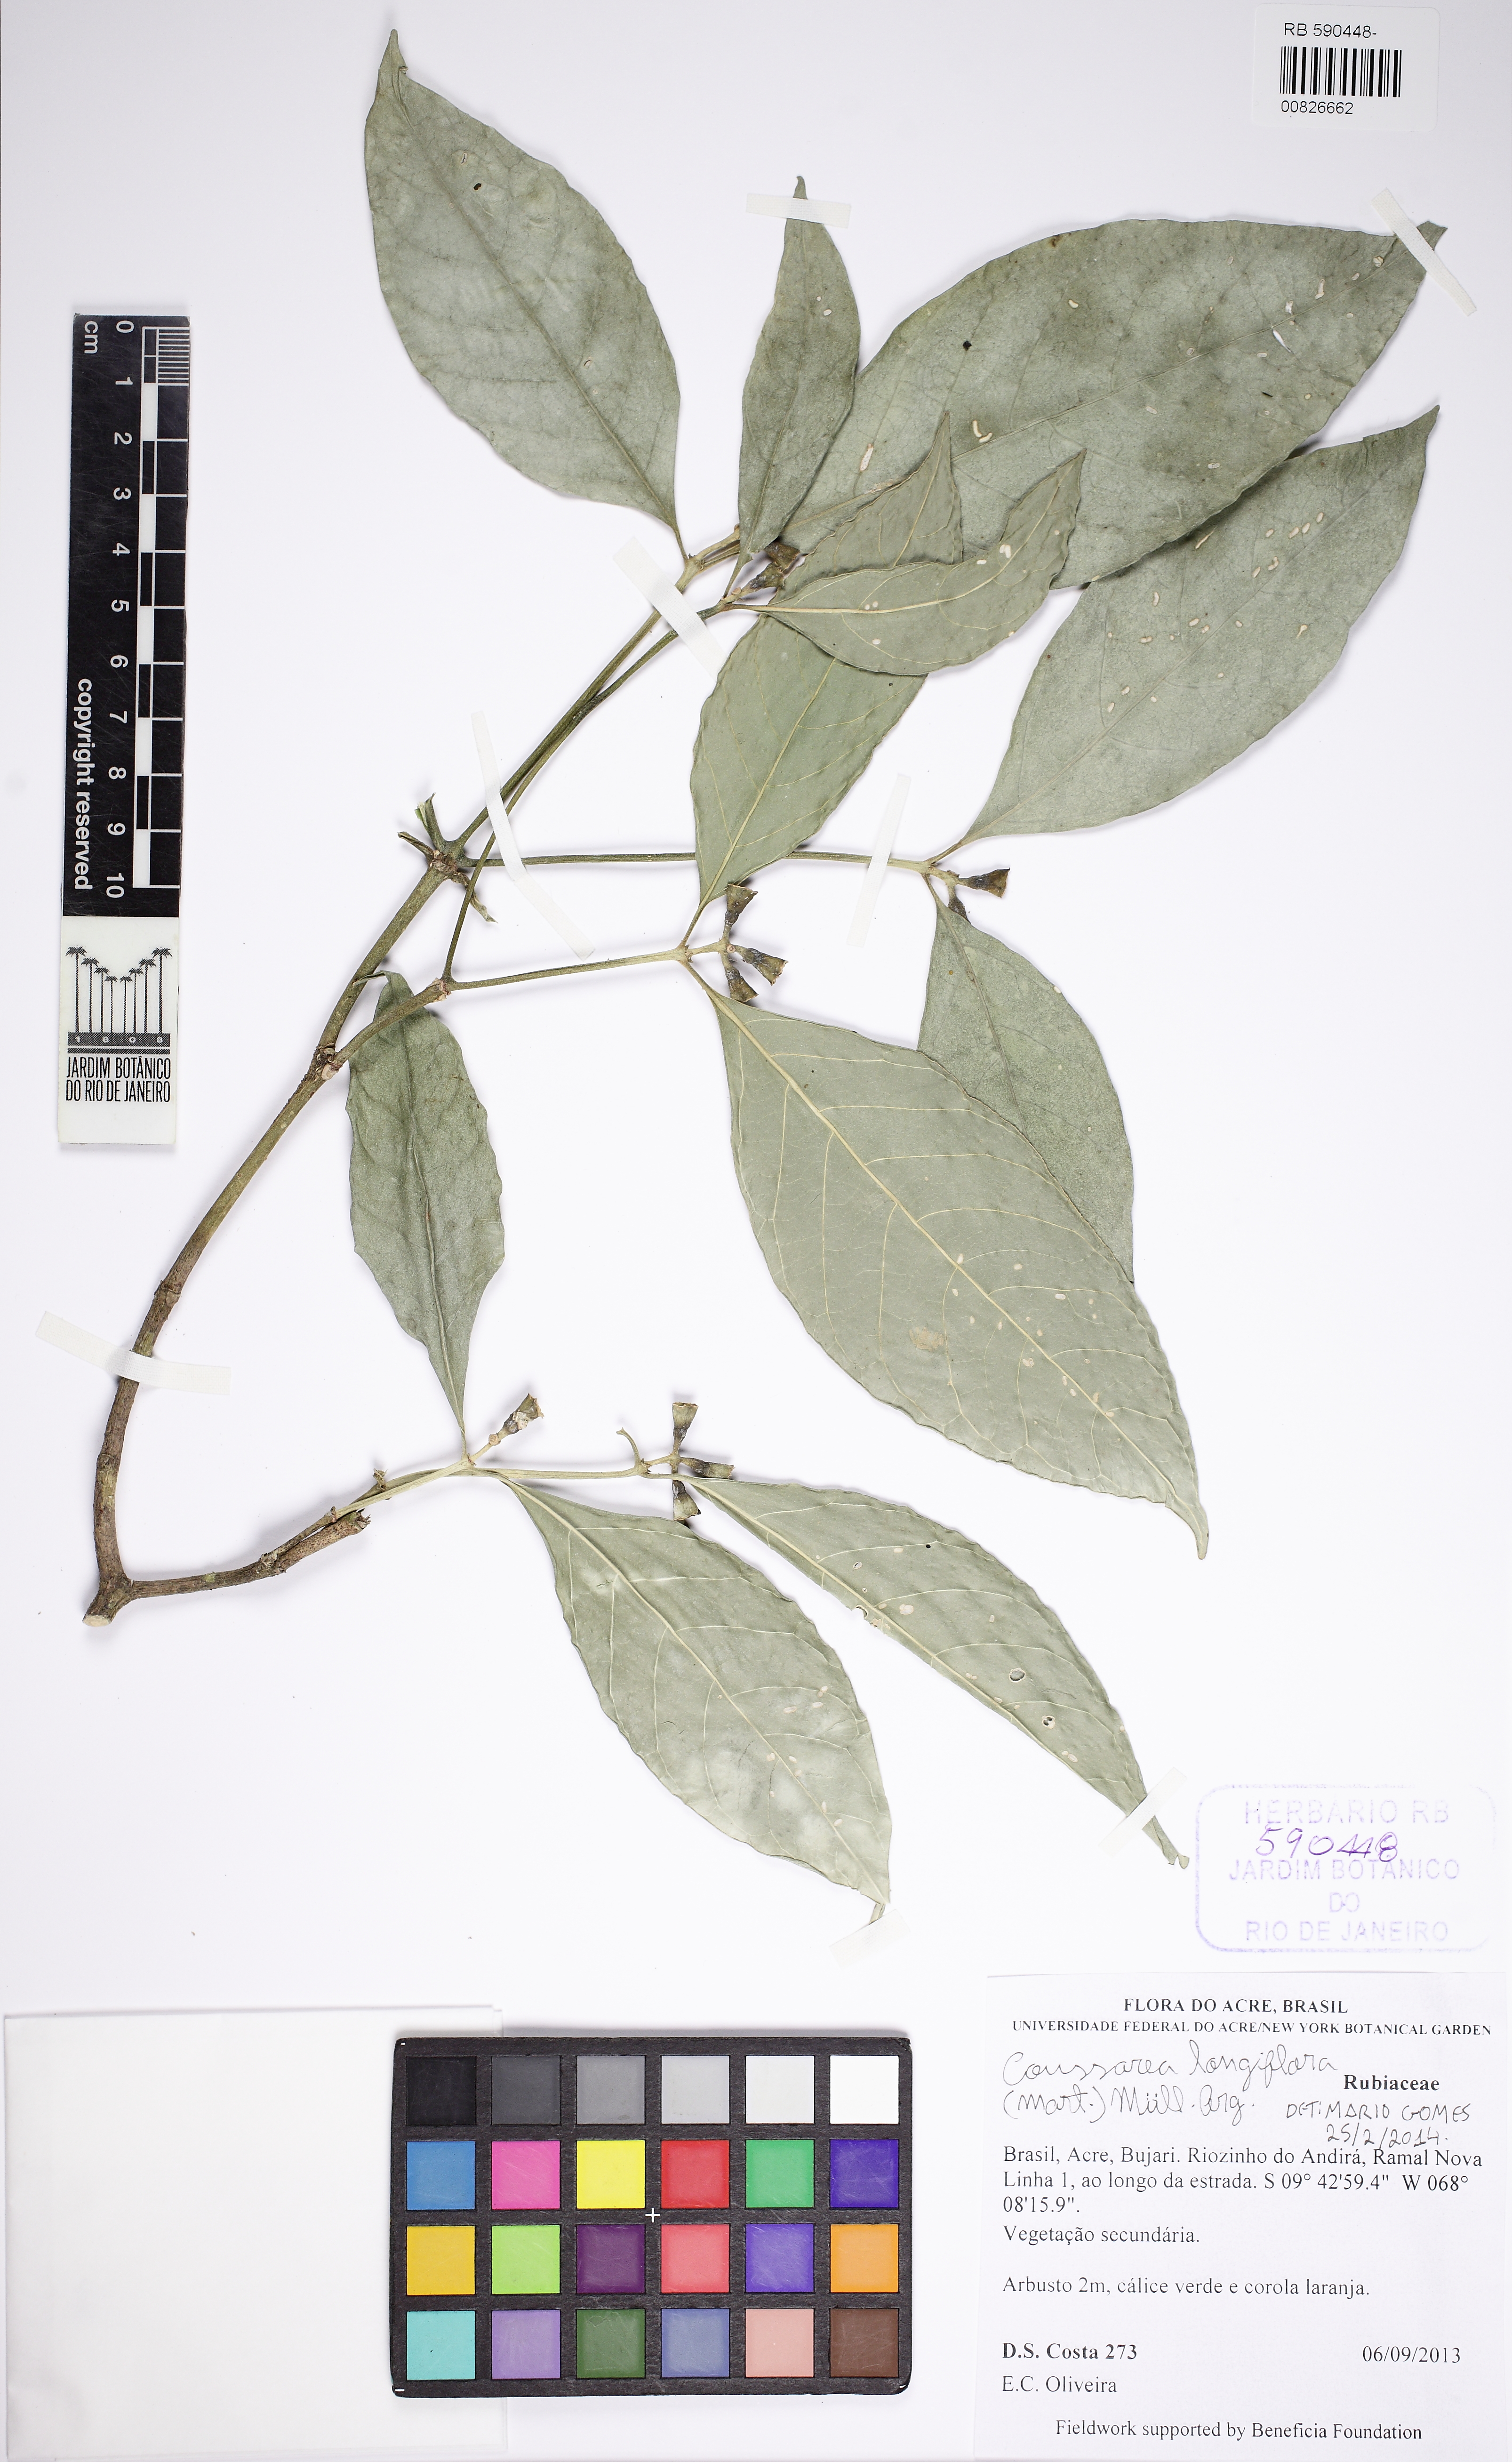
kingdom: Plantae
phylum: Tracheophyta
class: Magnoliopsida
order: Gentianales
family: Rubiaceae
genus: Coussarea
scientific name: Coussarea longiflora
